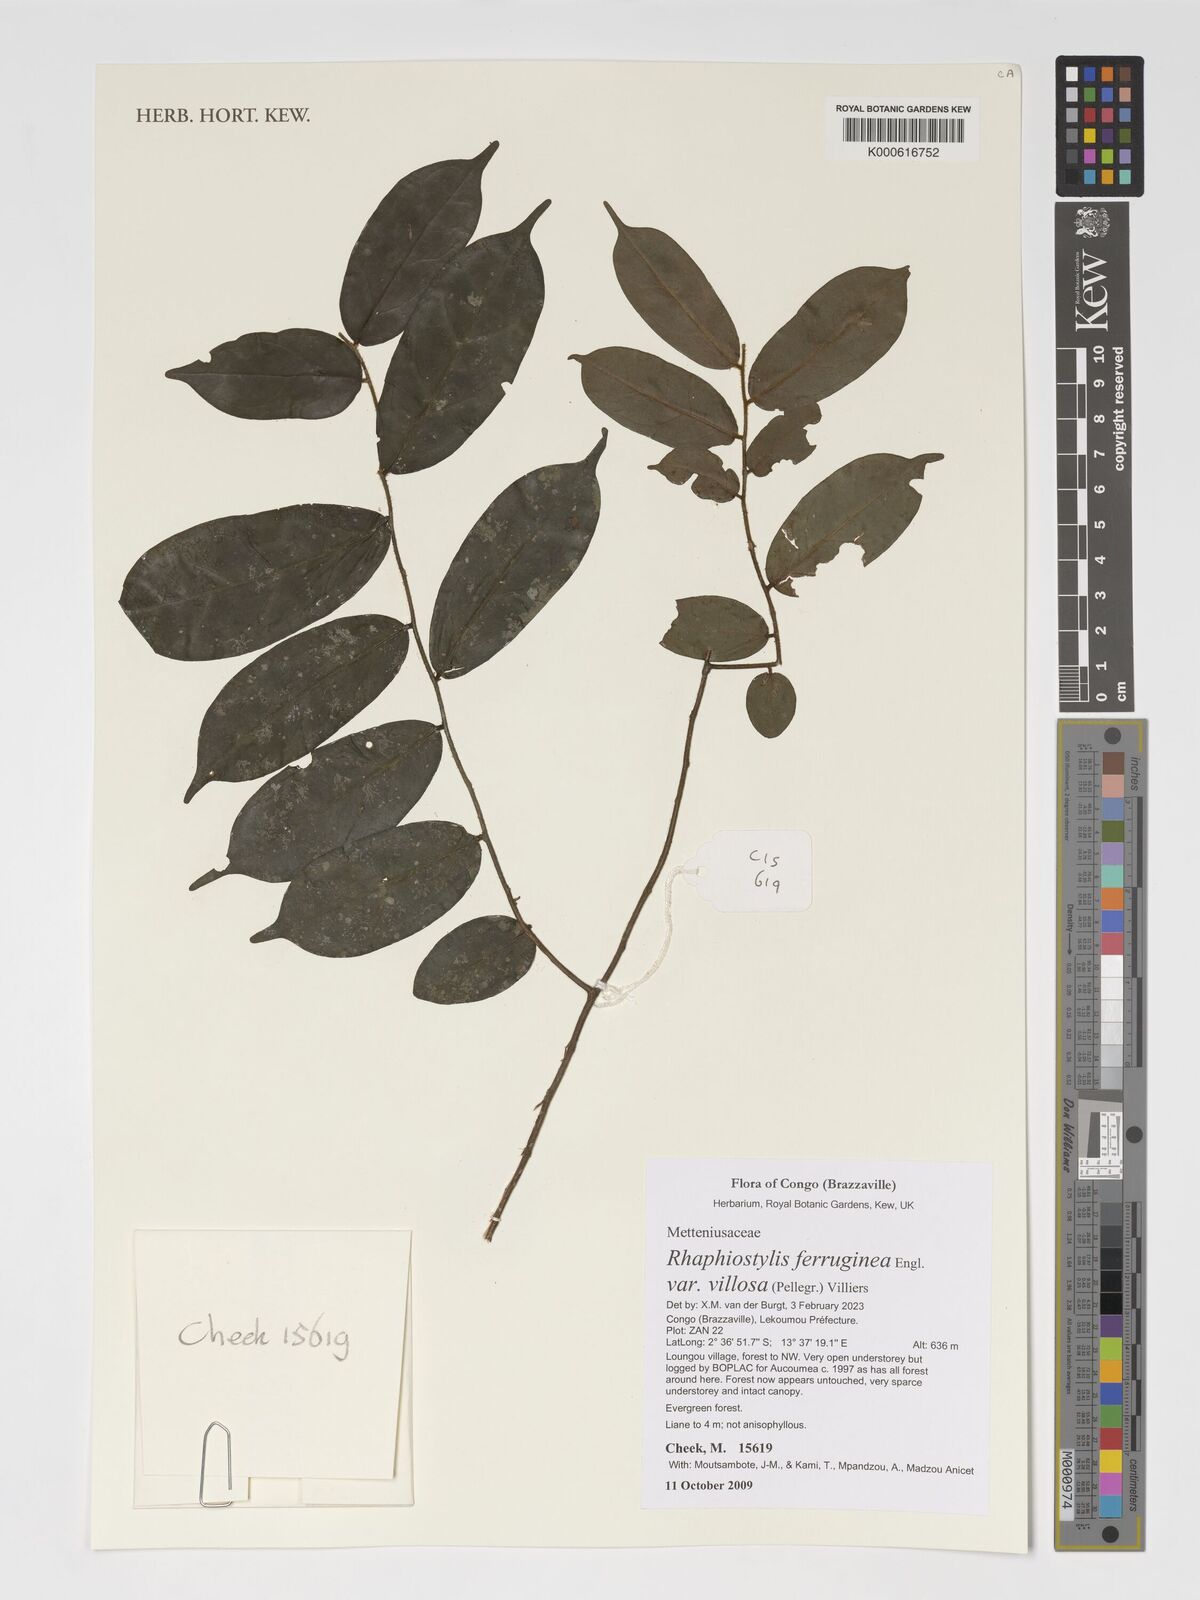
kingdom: Plantae
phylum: Tracheophyta
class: Magnoliopsida
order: Metteniusales
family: Metteniusaceae
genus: Rhaphiostylis
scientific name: Rhaphiostylis ferruginea
